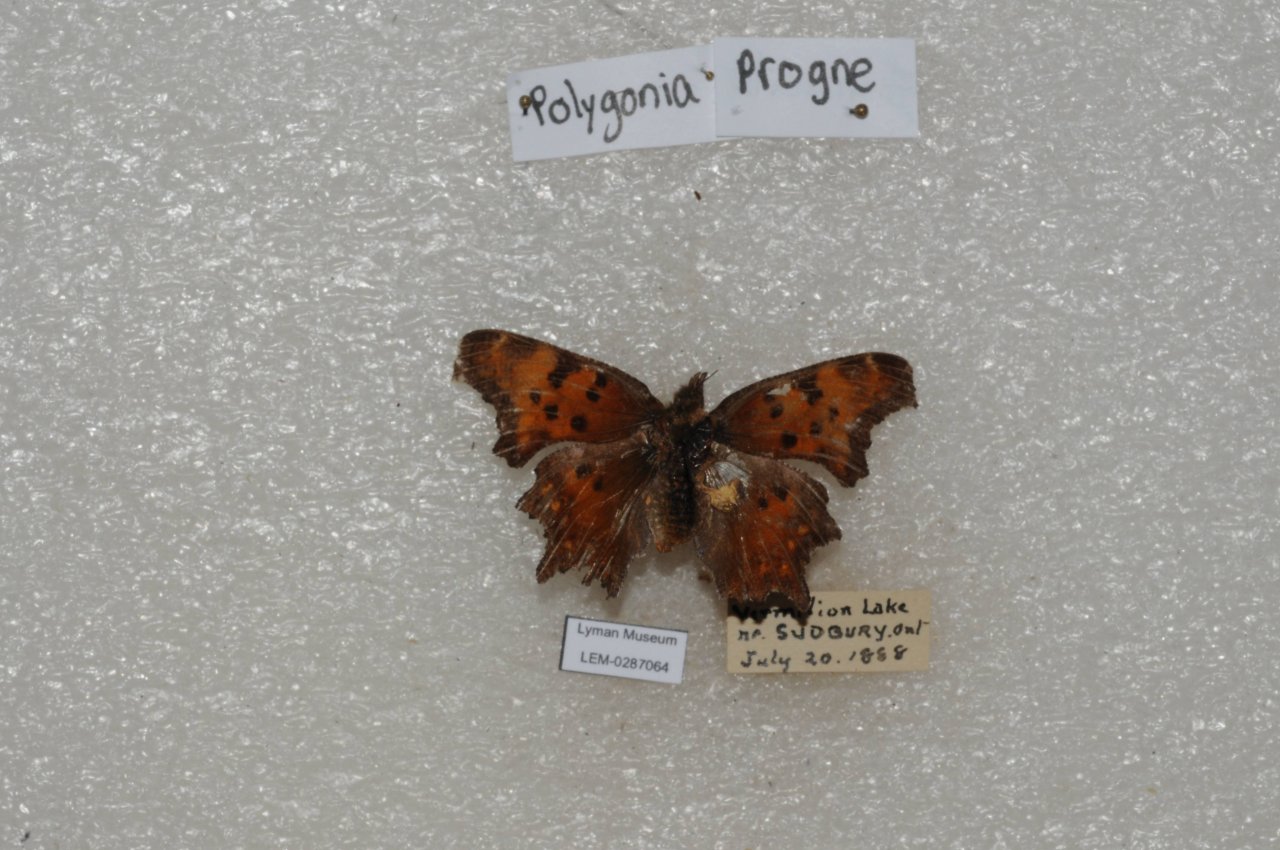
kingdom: Animalia
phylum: Arthropoda
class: Insecta
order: Lepidoptera
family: Nymphalidae
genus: Polygonia
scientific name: Polygonia progne
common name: Gray Comma
